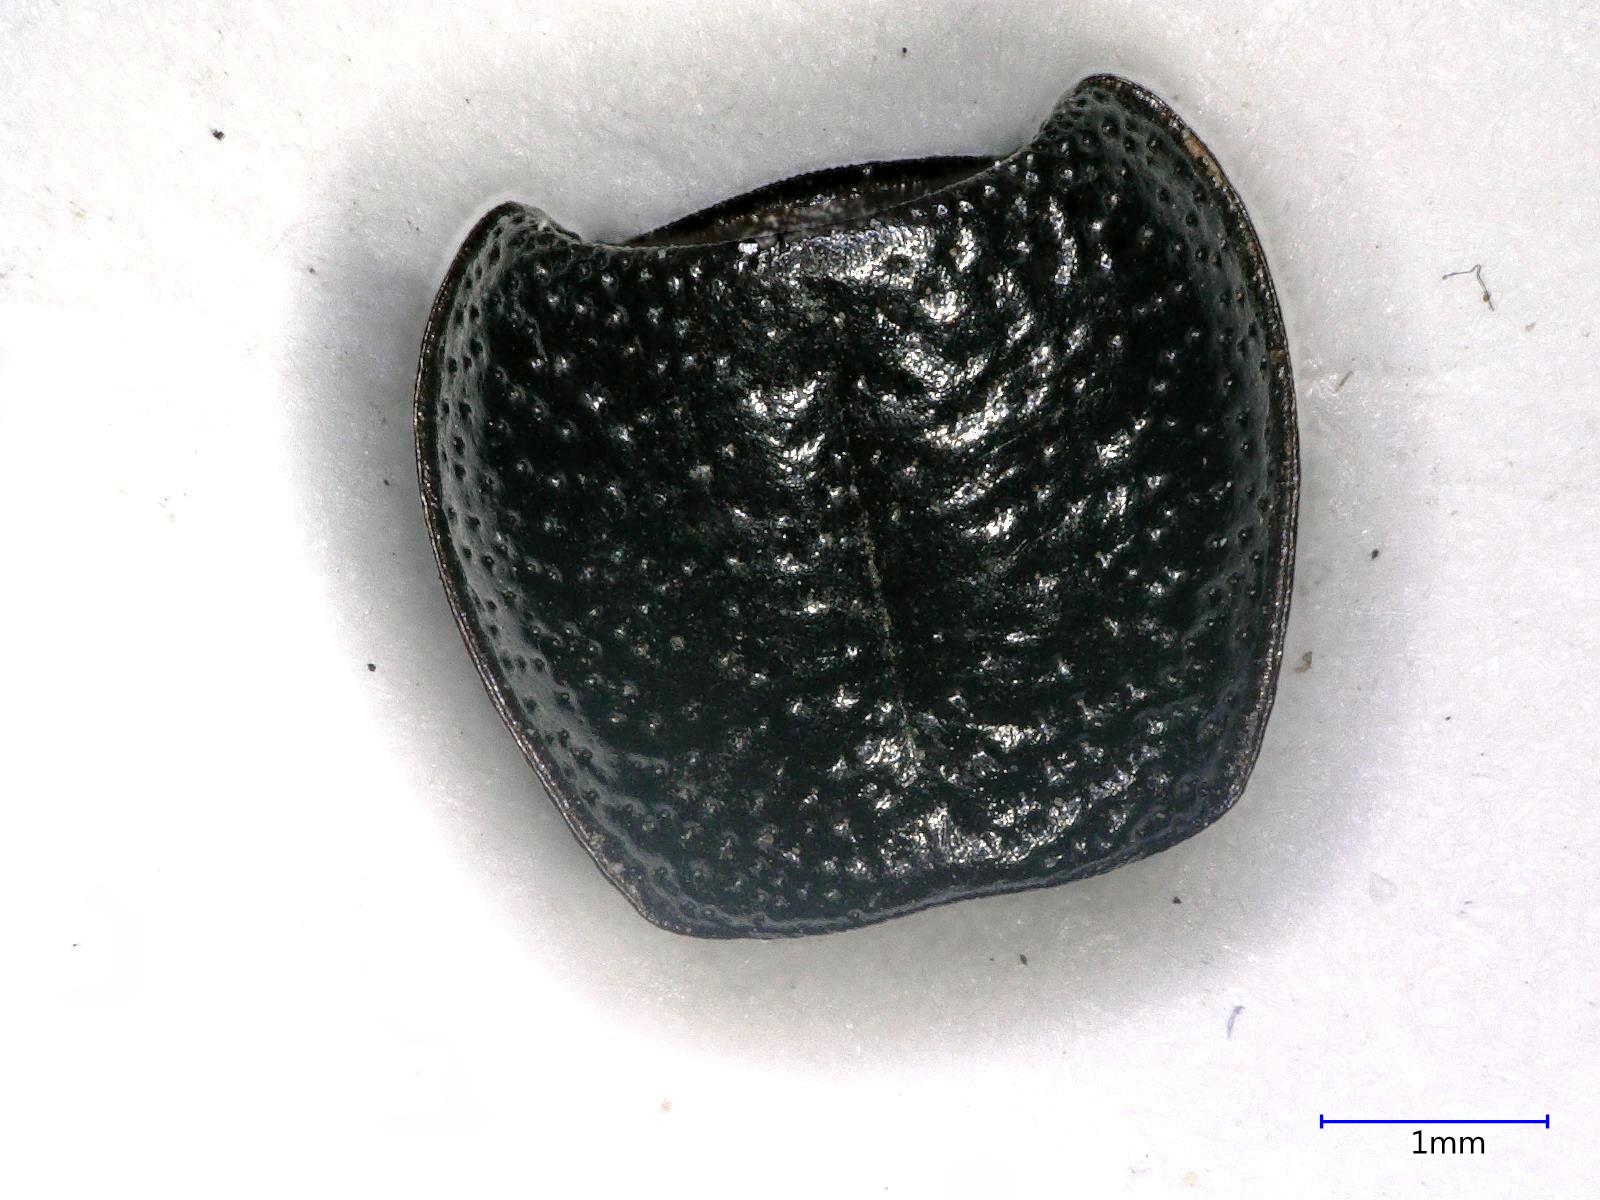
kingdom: Animalia
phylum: Arthropoda
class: Insecta
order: Coleoptera
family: Carabidae
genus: Dicheirus
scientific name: Dicheirus dilatatus
